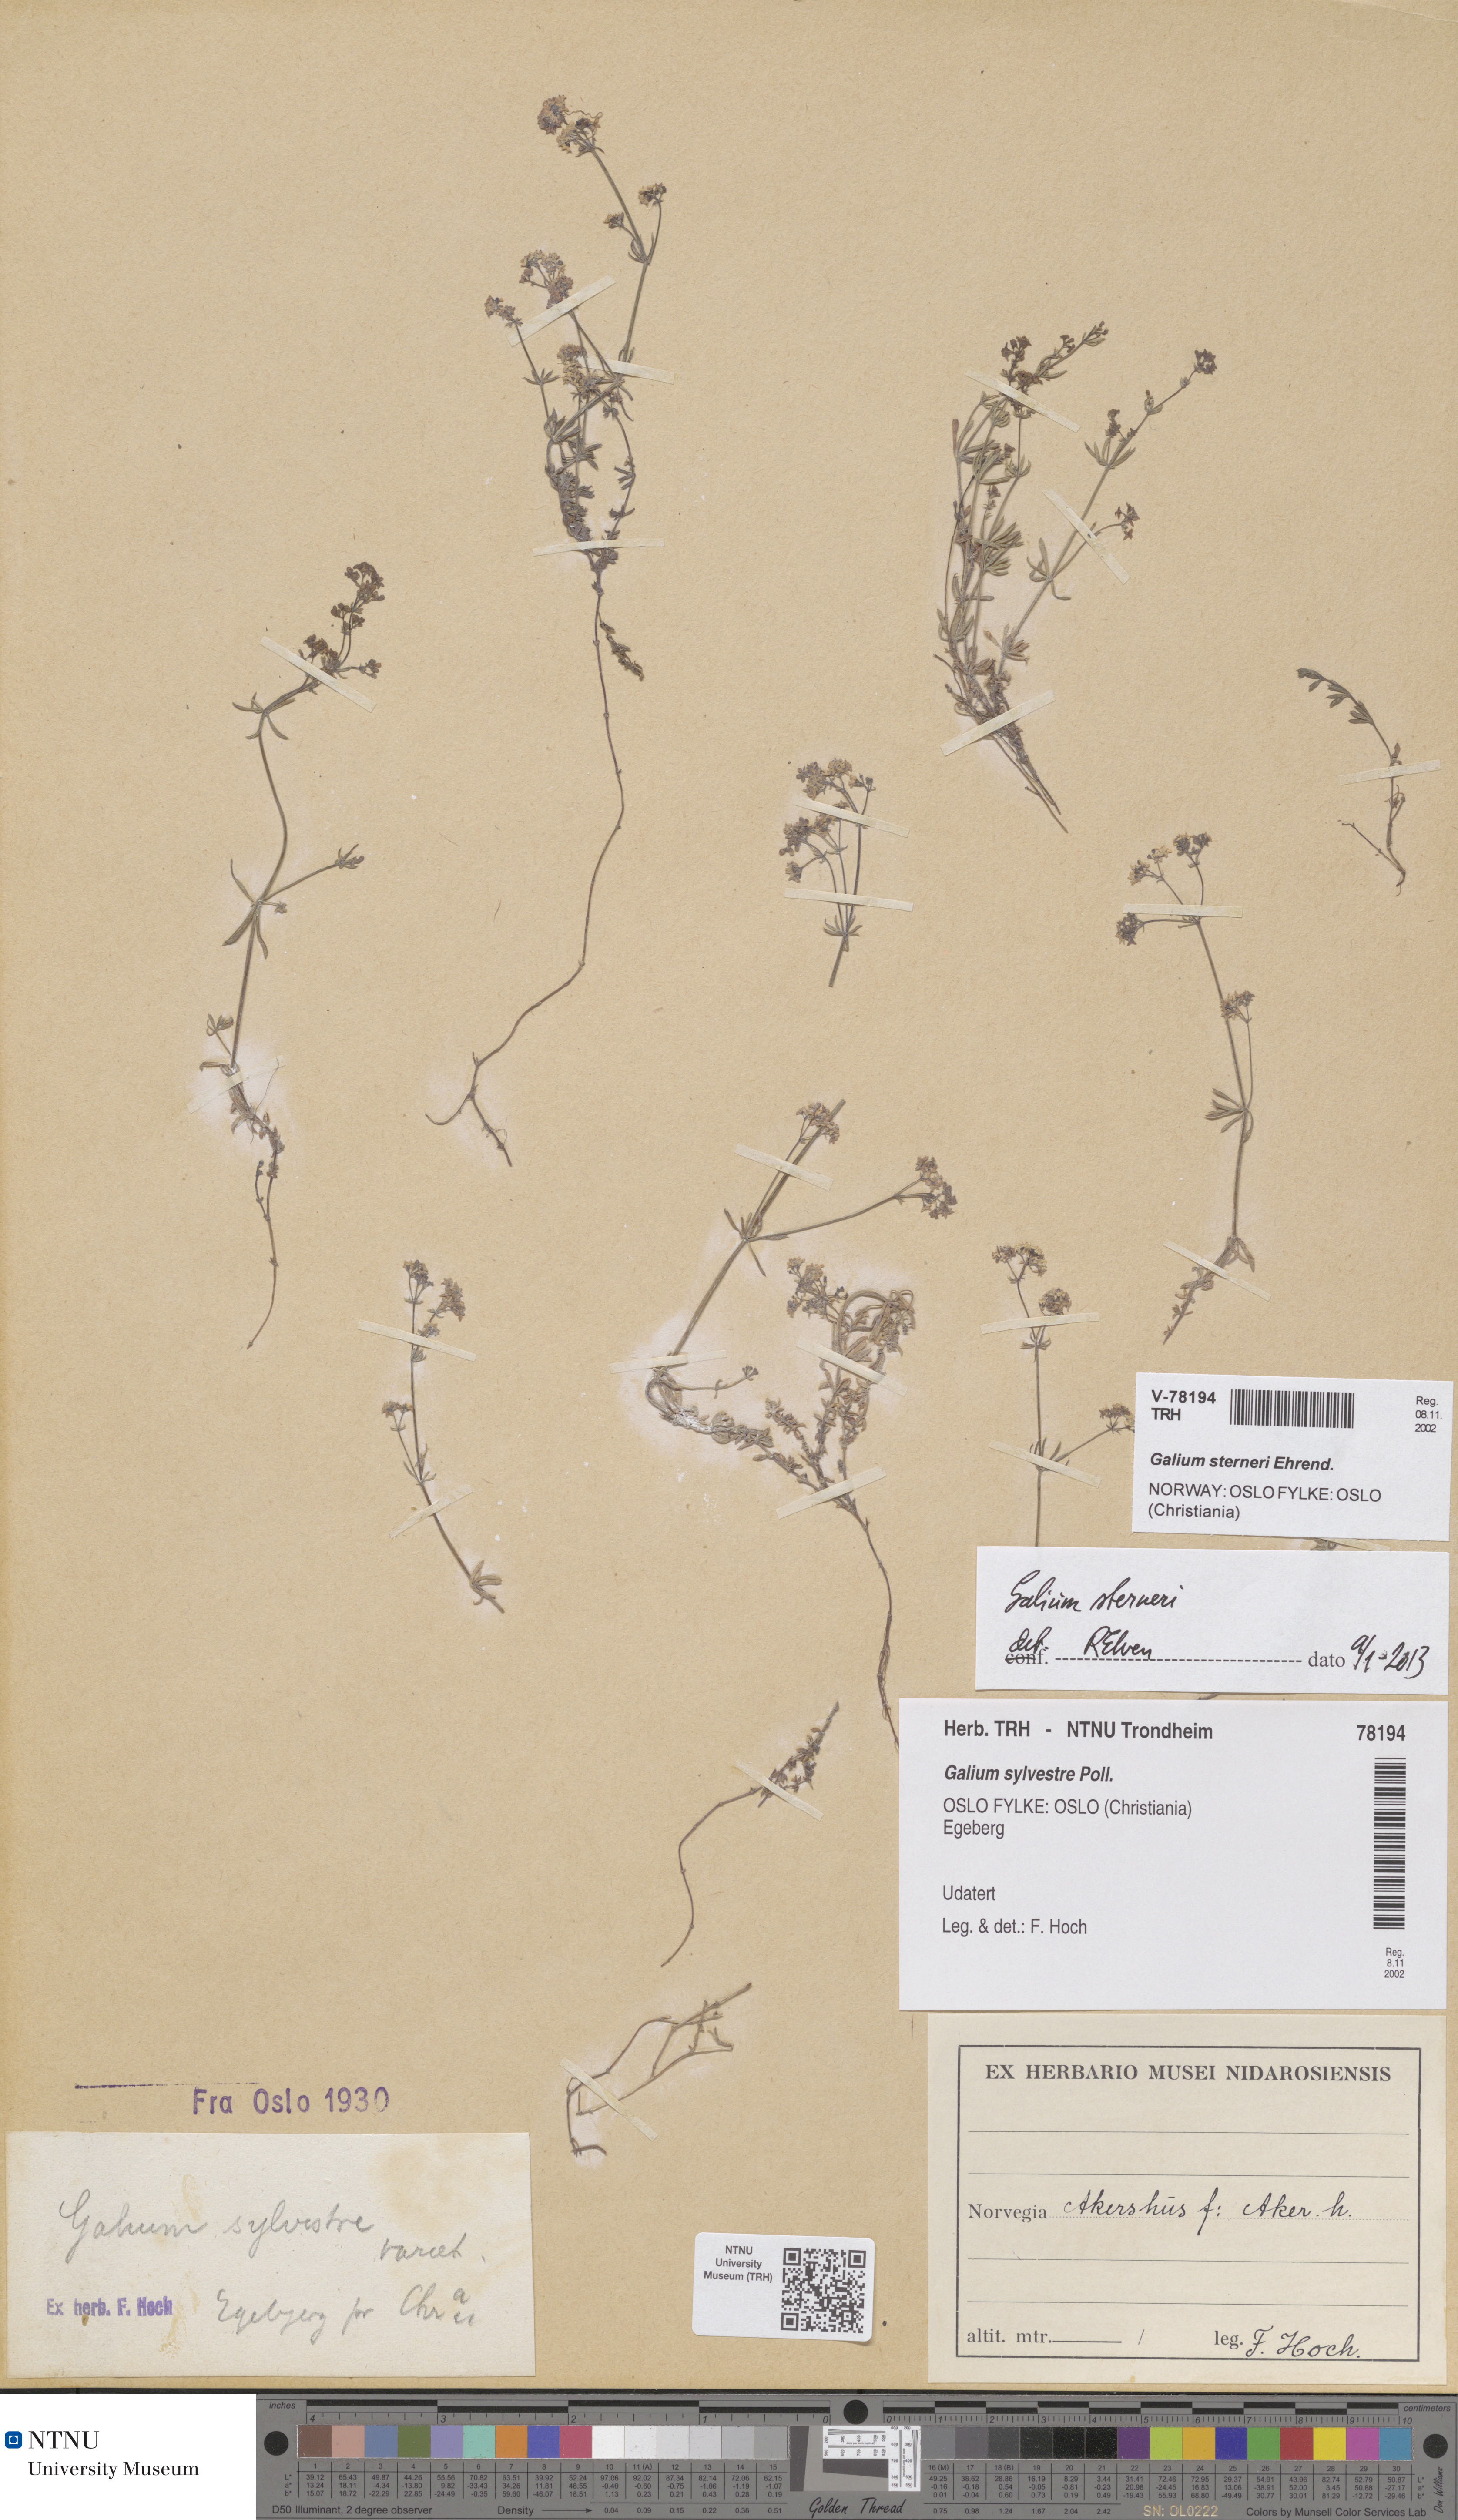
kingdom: Plantae
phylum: Tracheophyta
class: Magnoliopsida
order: Gentianales
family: Rubiaceae
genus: Galium
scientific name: Galium sterneri
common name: Limestone bedstraw
